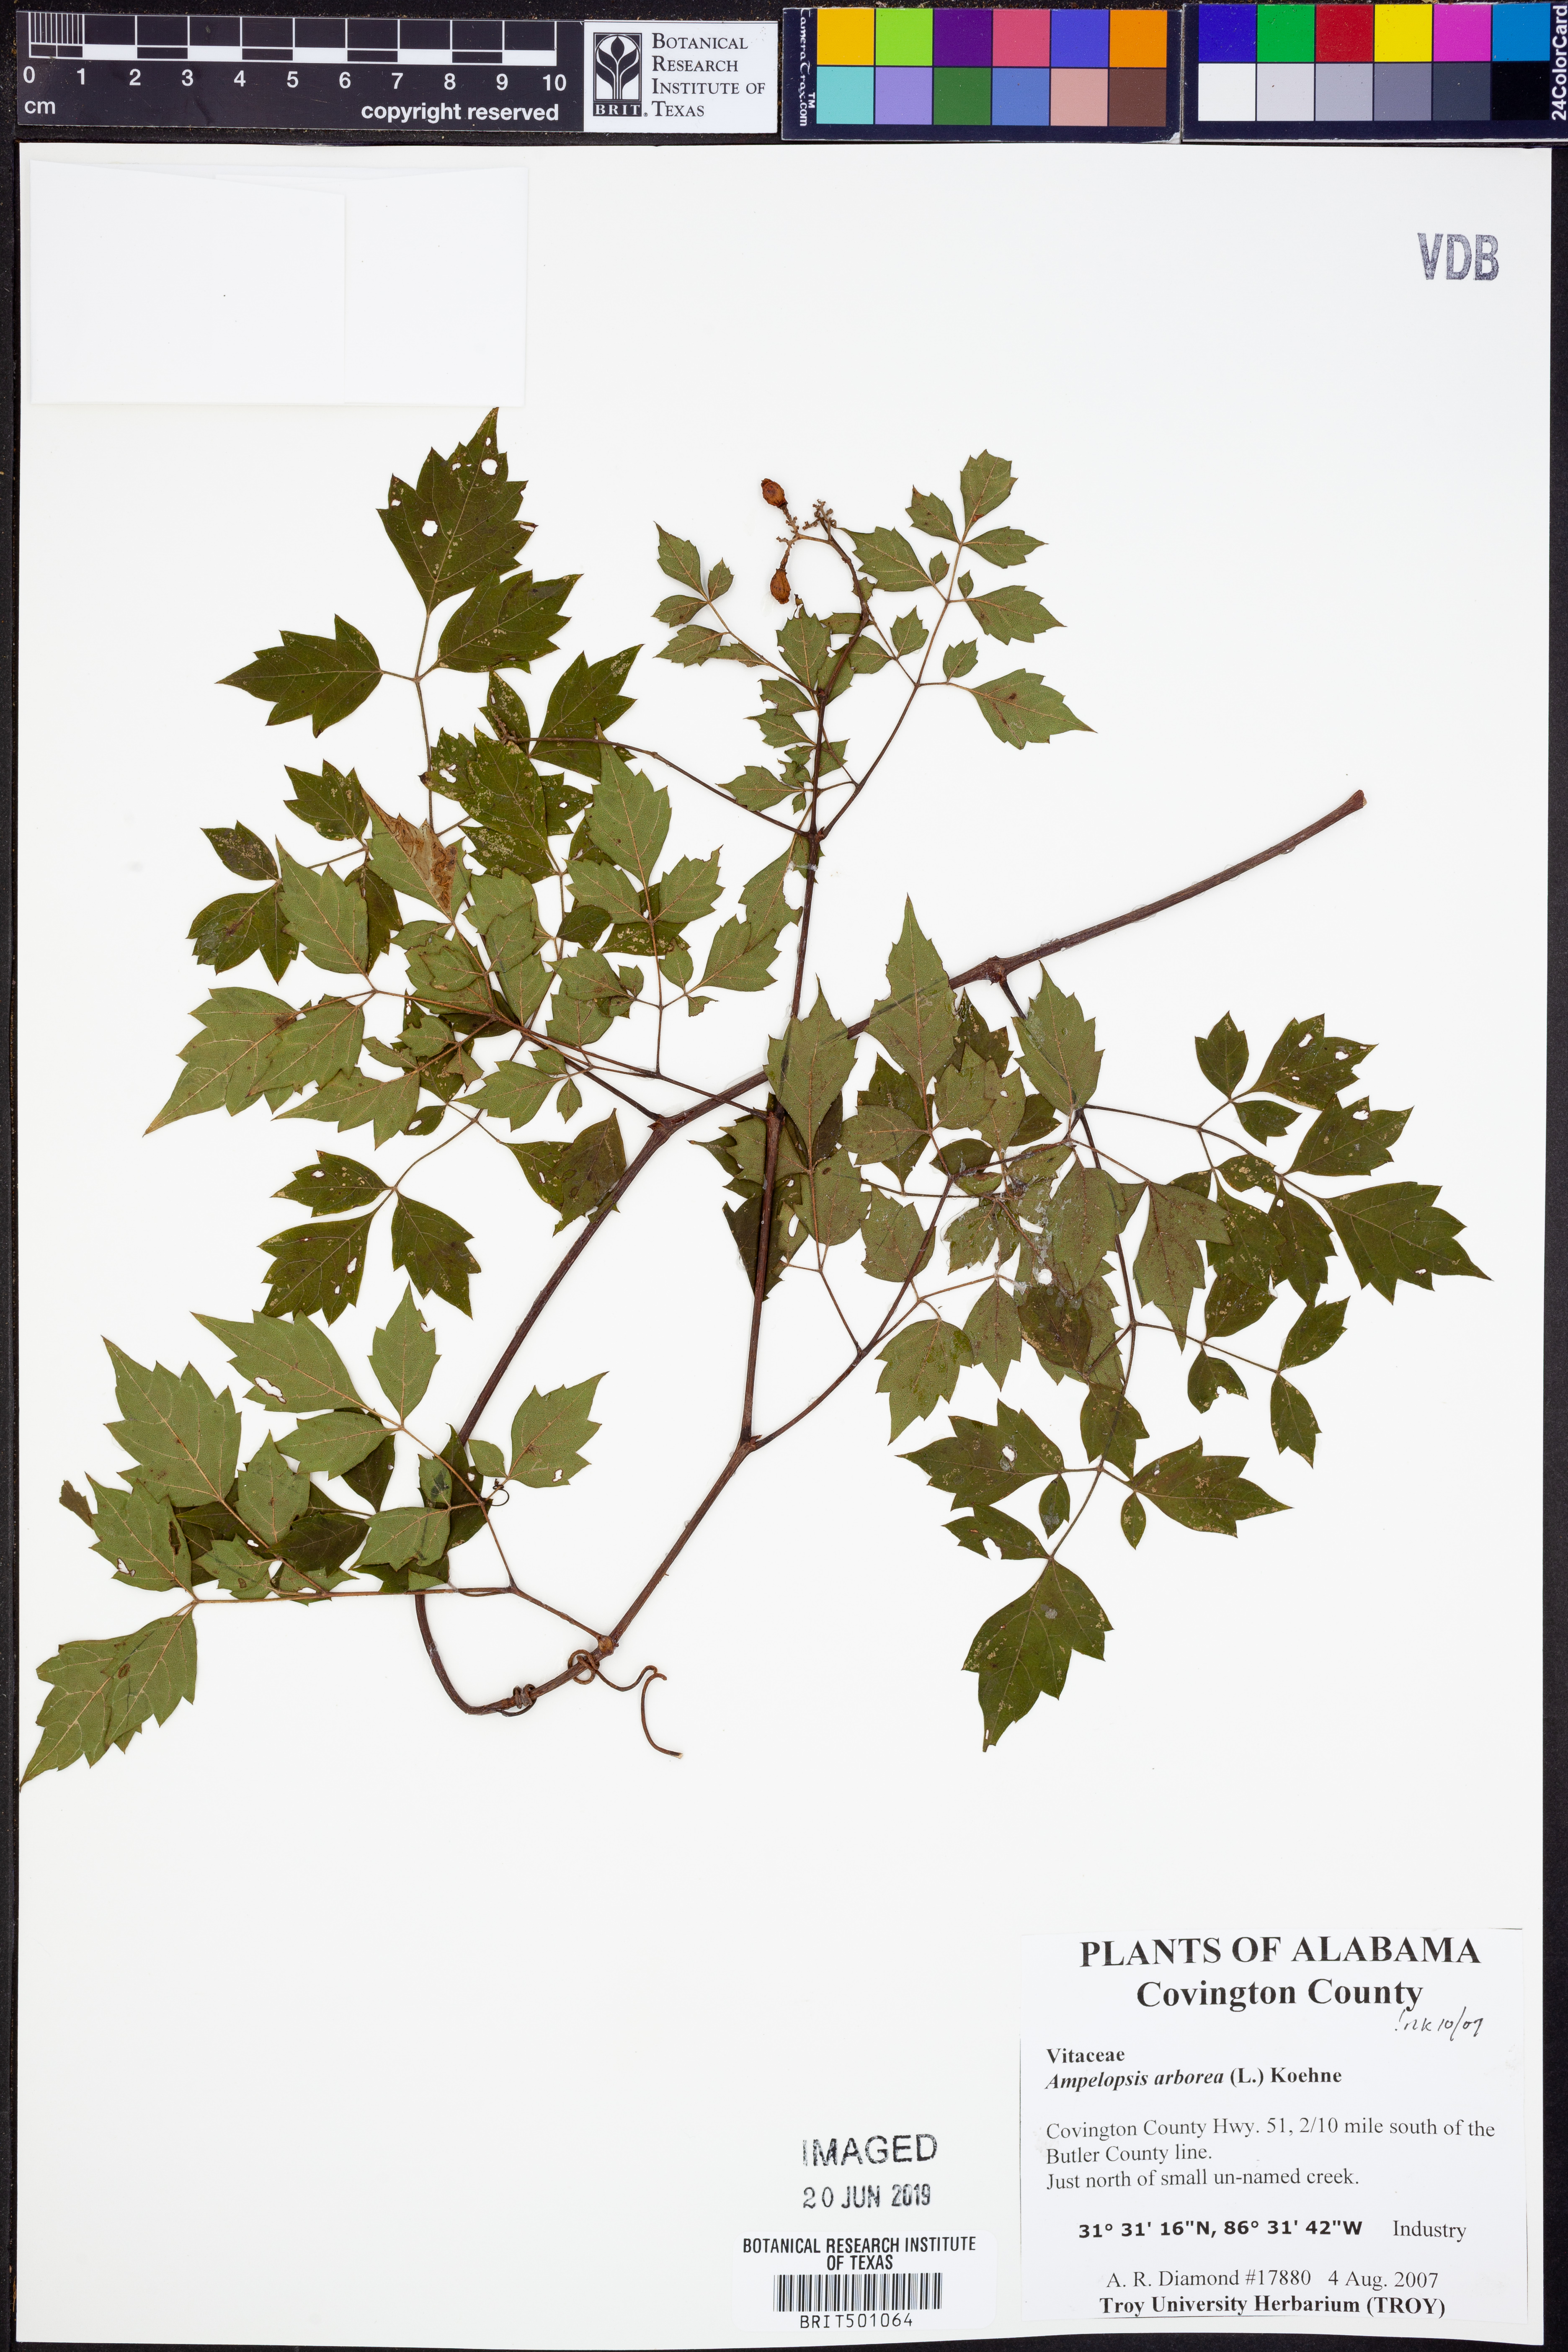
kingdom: Plantae
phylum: Tracheophyta
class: Magnoliopsida
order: Vitales
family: Vitaceae
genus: Nekemias
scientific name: Nekemias arborea
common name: Peppervine
